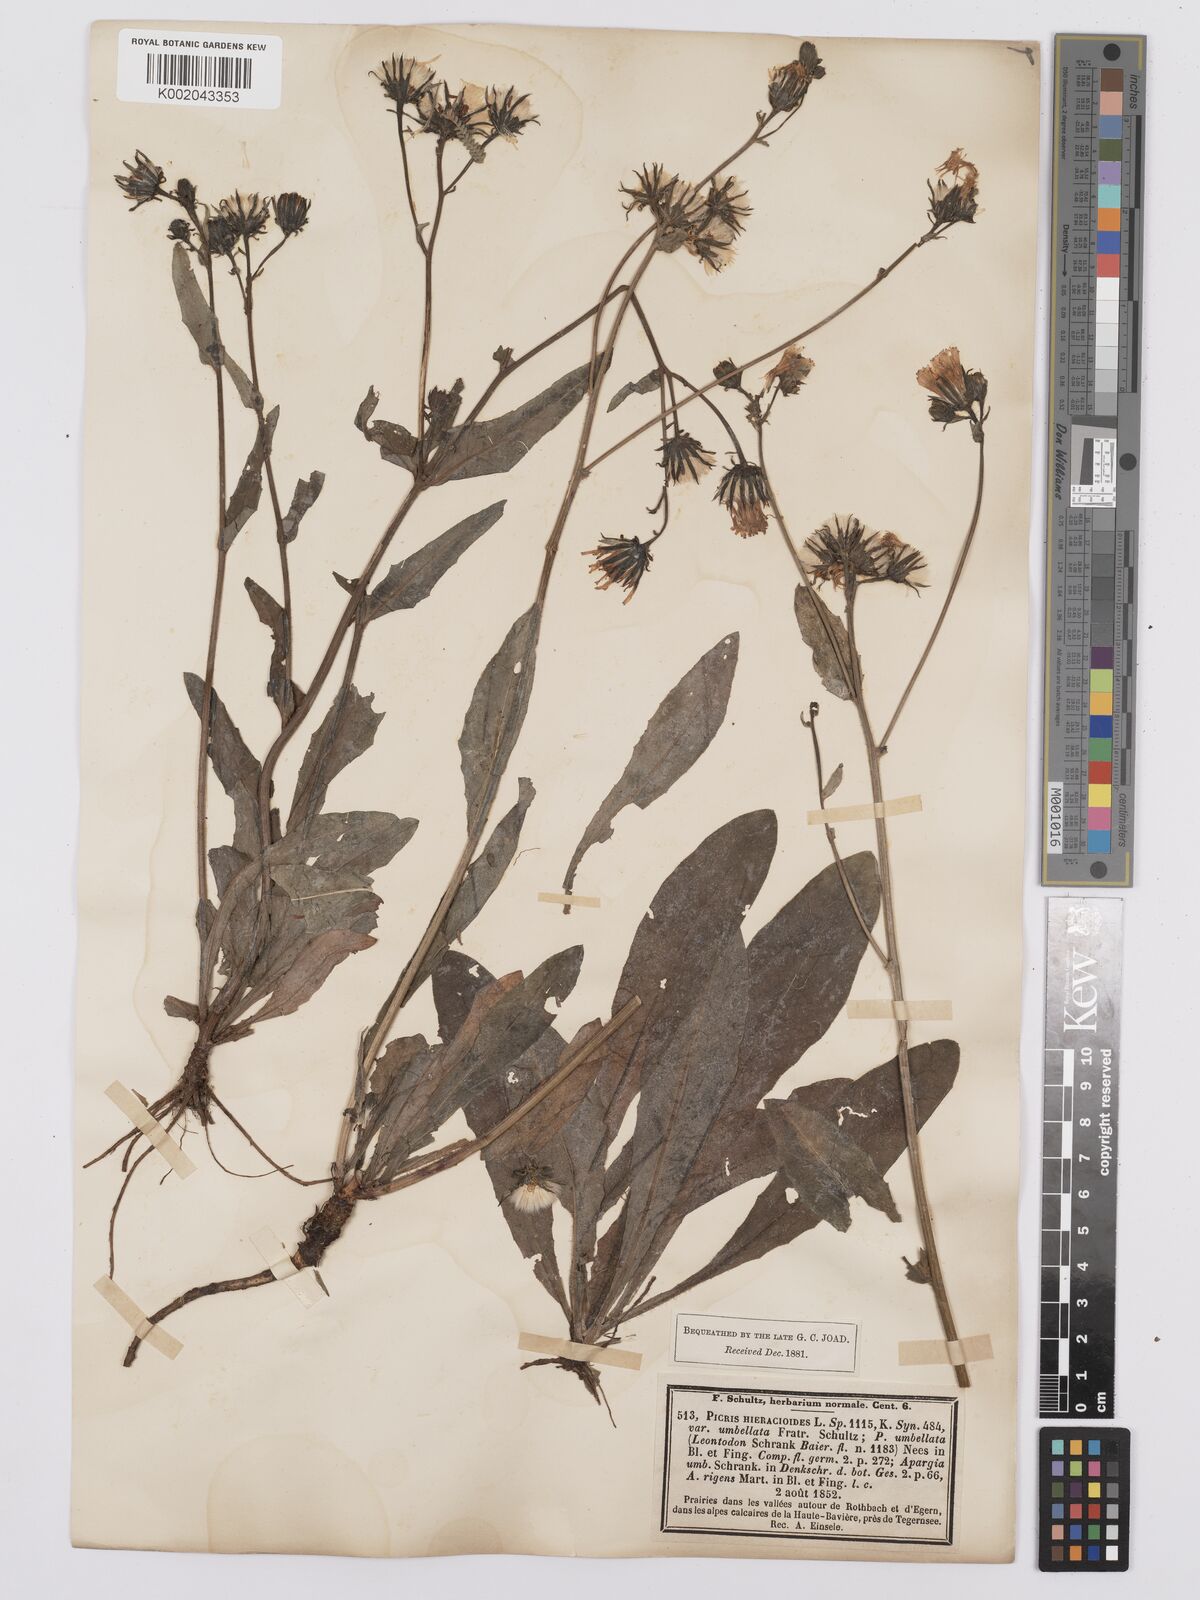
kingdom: Plantae
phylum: Tracheophyta
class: Magnoliopsida
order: Asterales
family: Asteraceae
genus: Picris
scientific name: Picris hieracioides
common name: Hawkweed oxtongue
